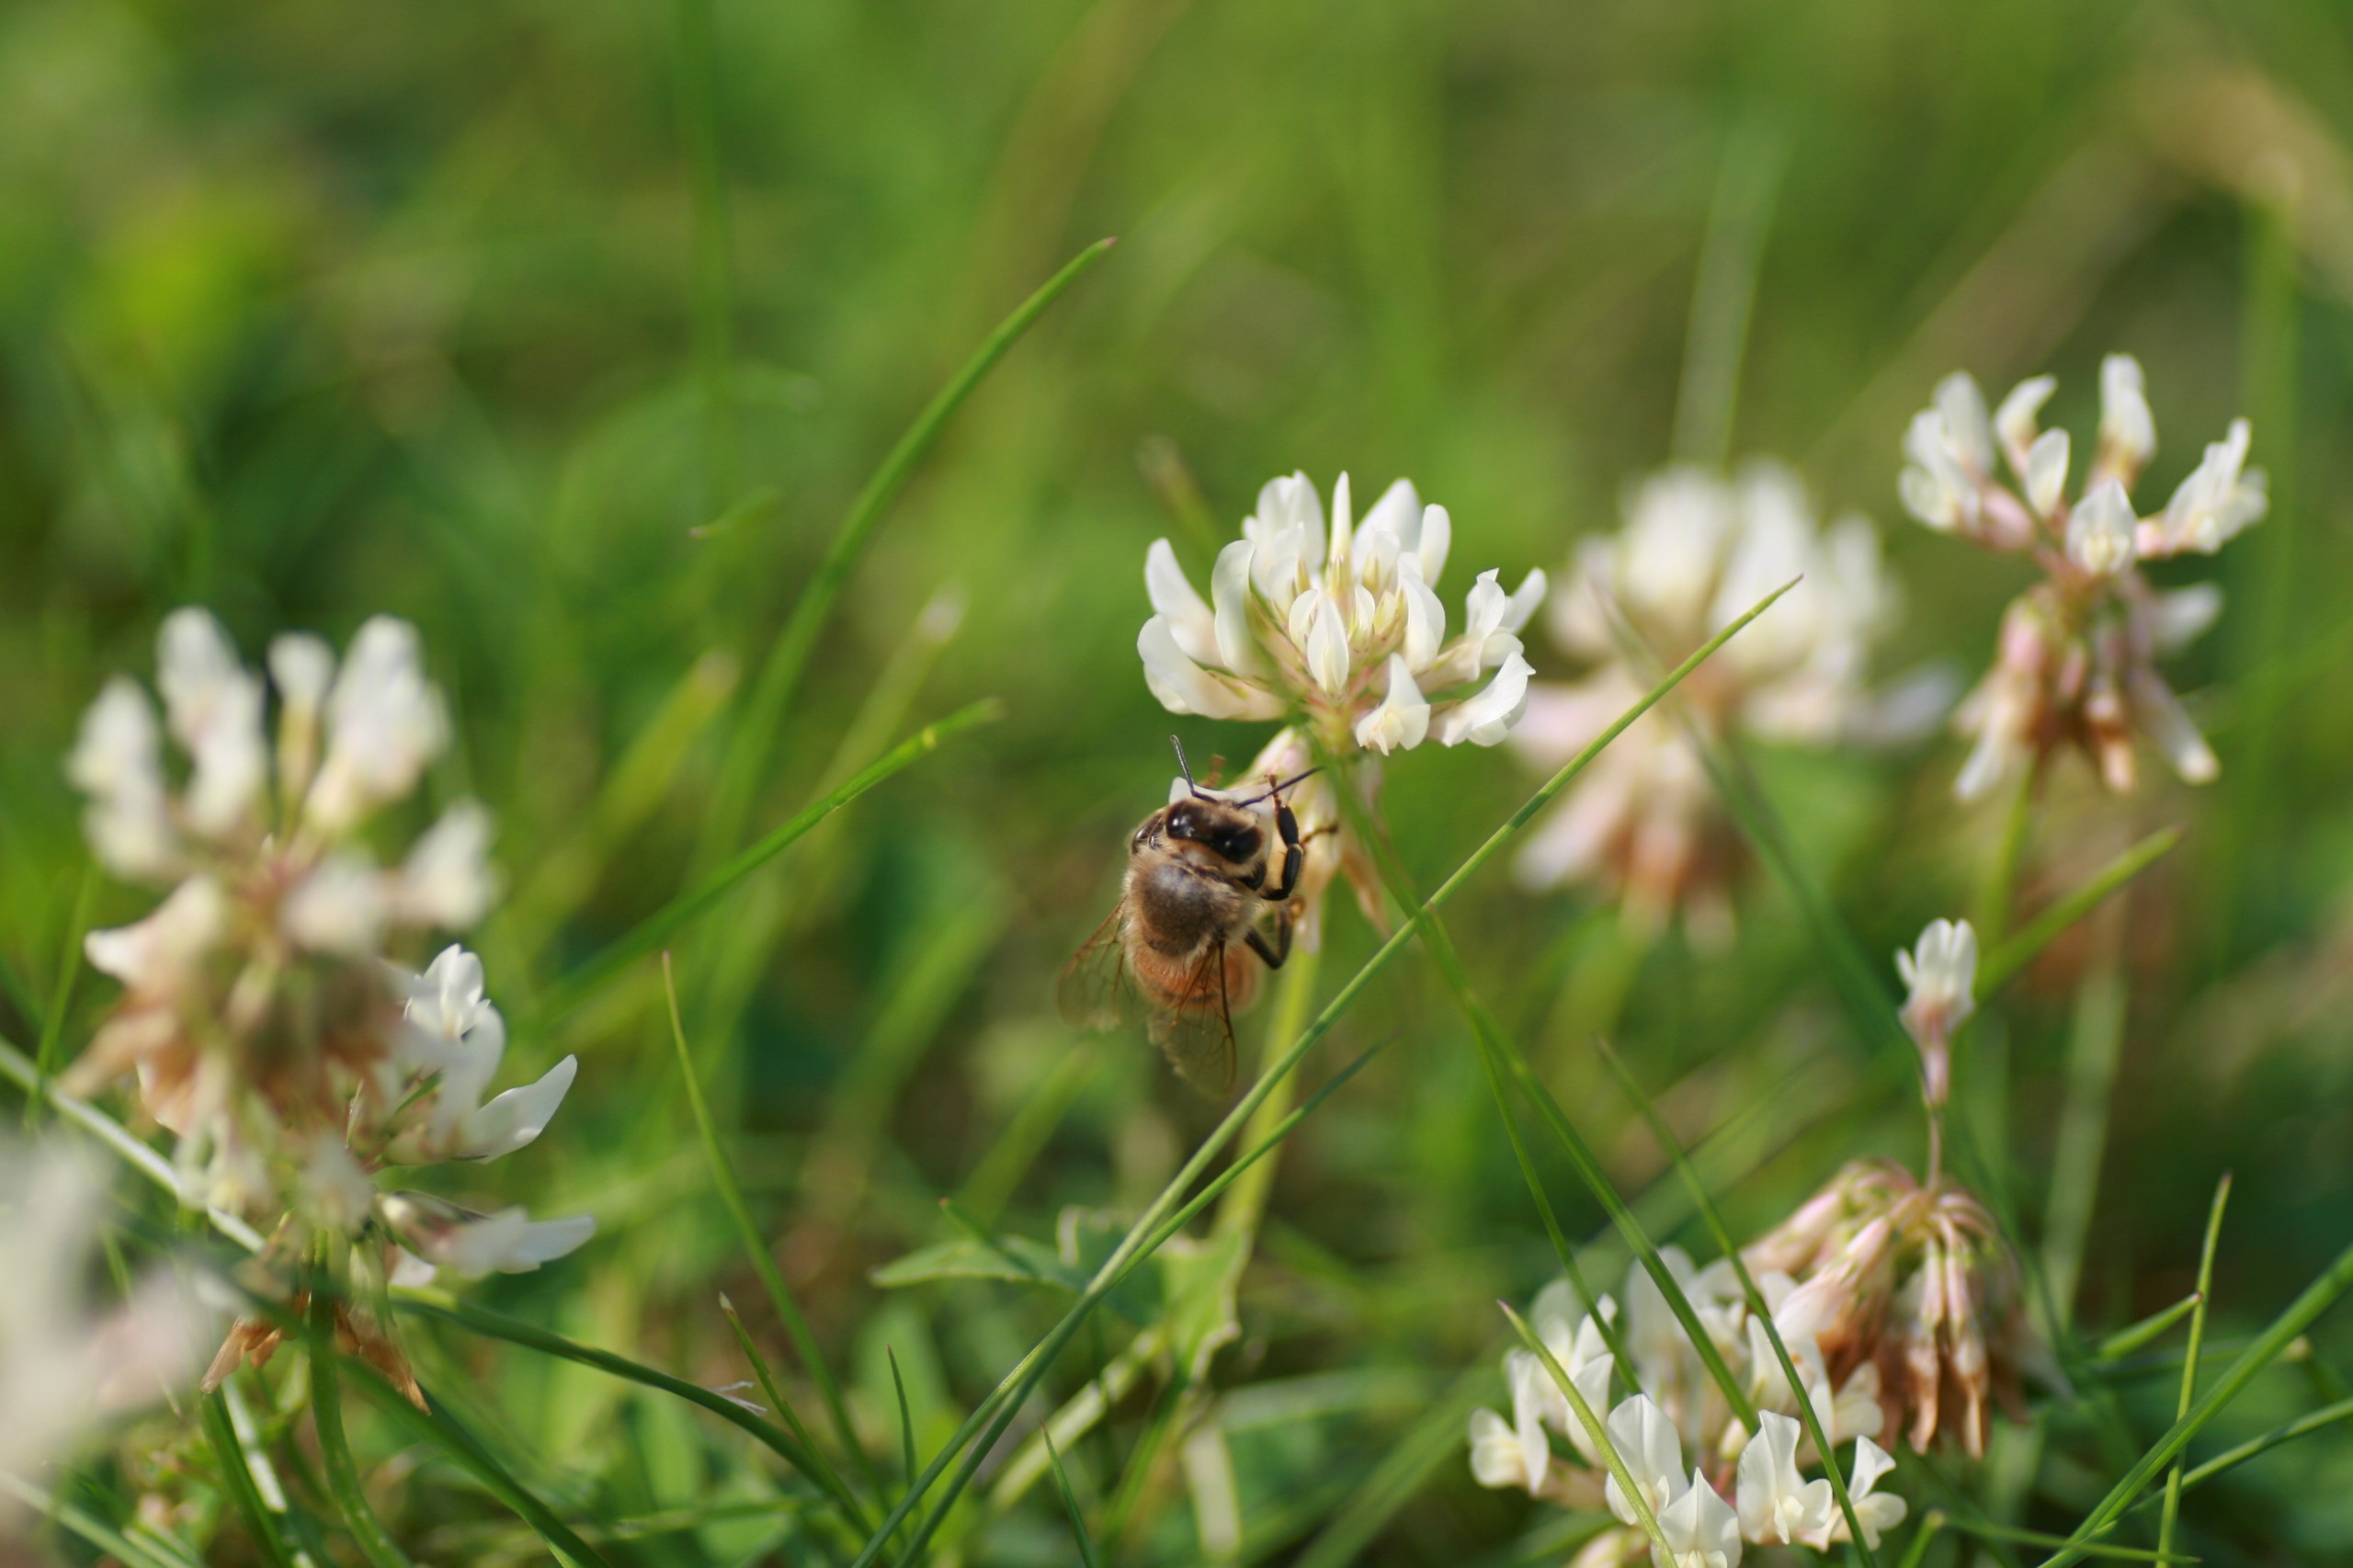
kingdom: Animalia
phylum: Arthropoda
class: Insecta
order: Hymenoptera
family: Apidae
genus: Apis
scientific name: Apis mellifera
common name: Honningbi
